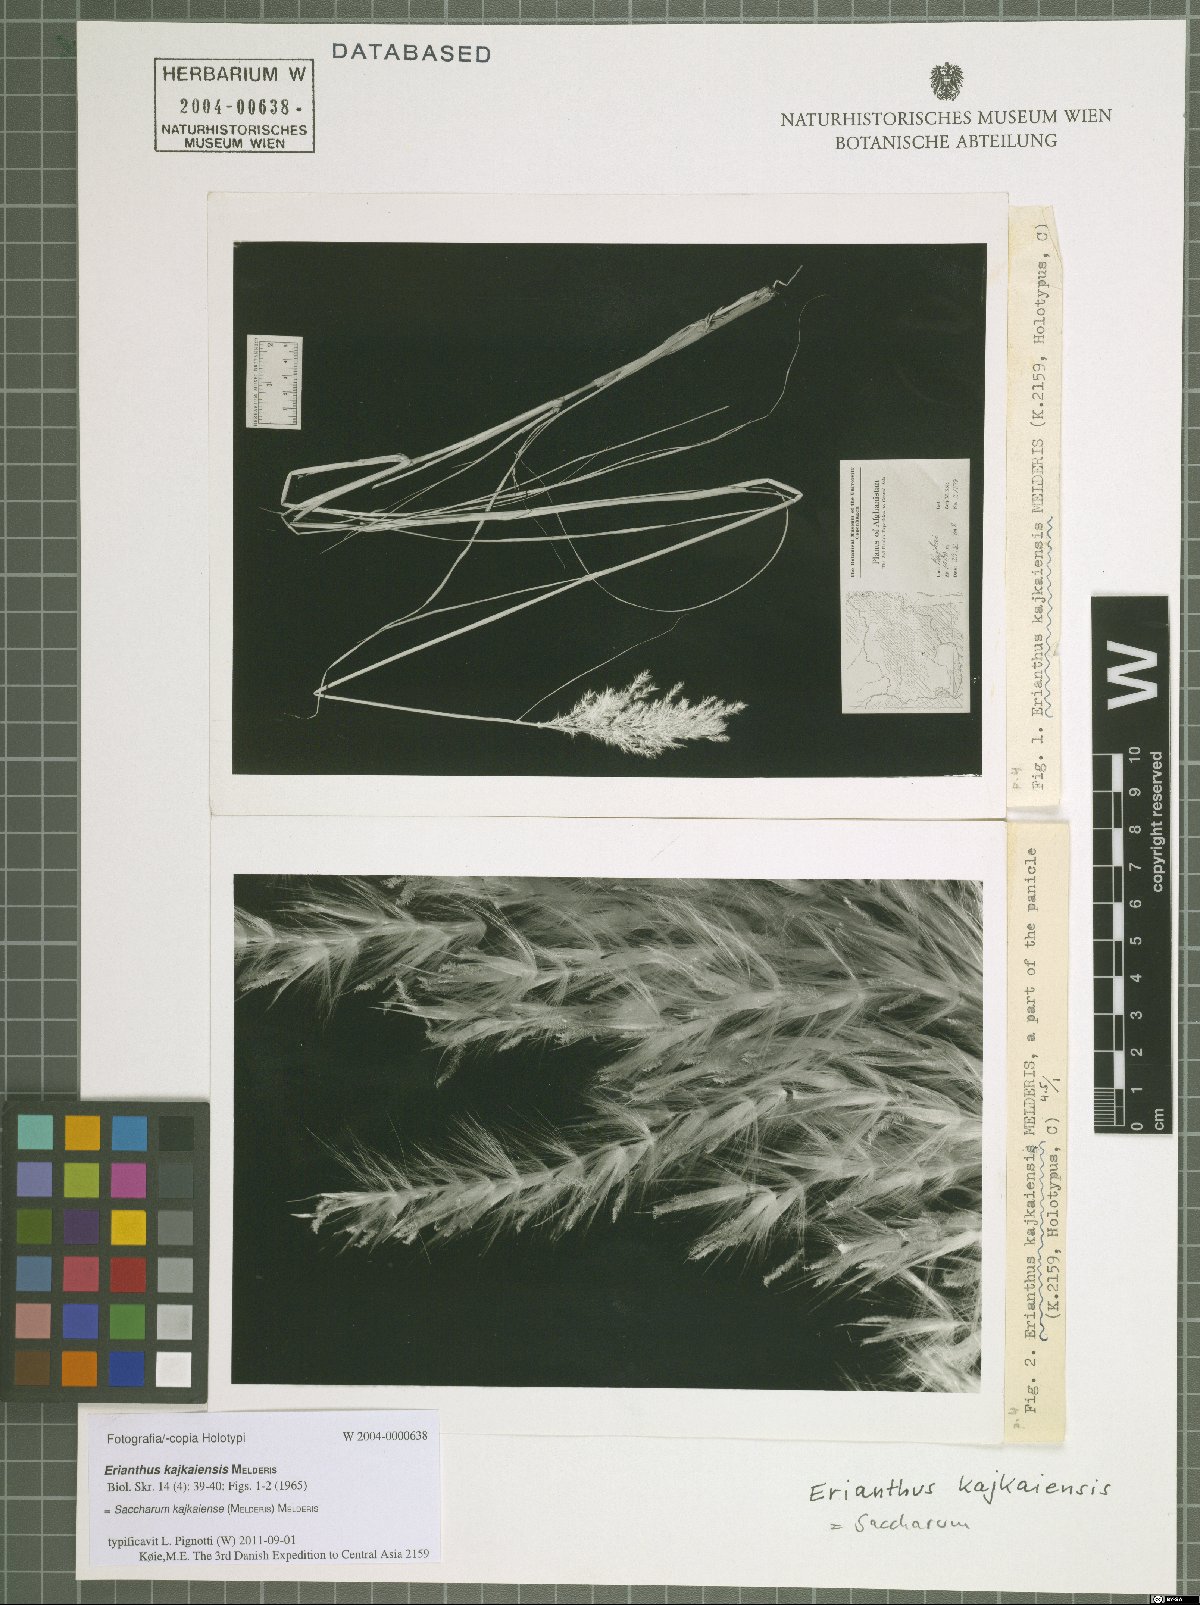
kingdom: Plantae
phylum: Tracheophyta
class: Liliopsida
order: Poales
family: Poaceae
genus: Saccharum
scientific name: Saccharum kajkaiense
